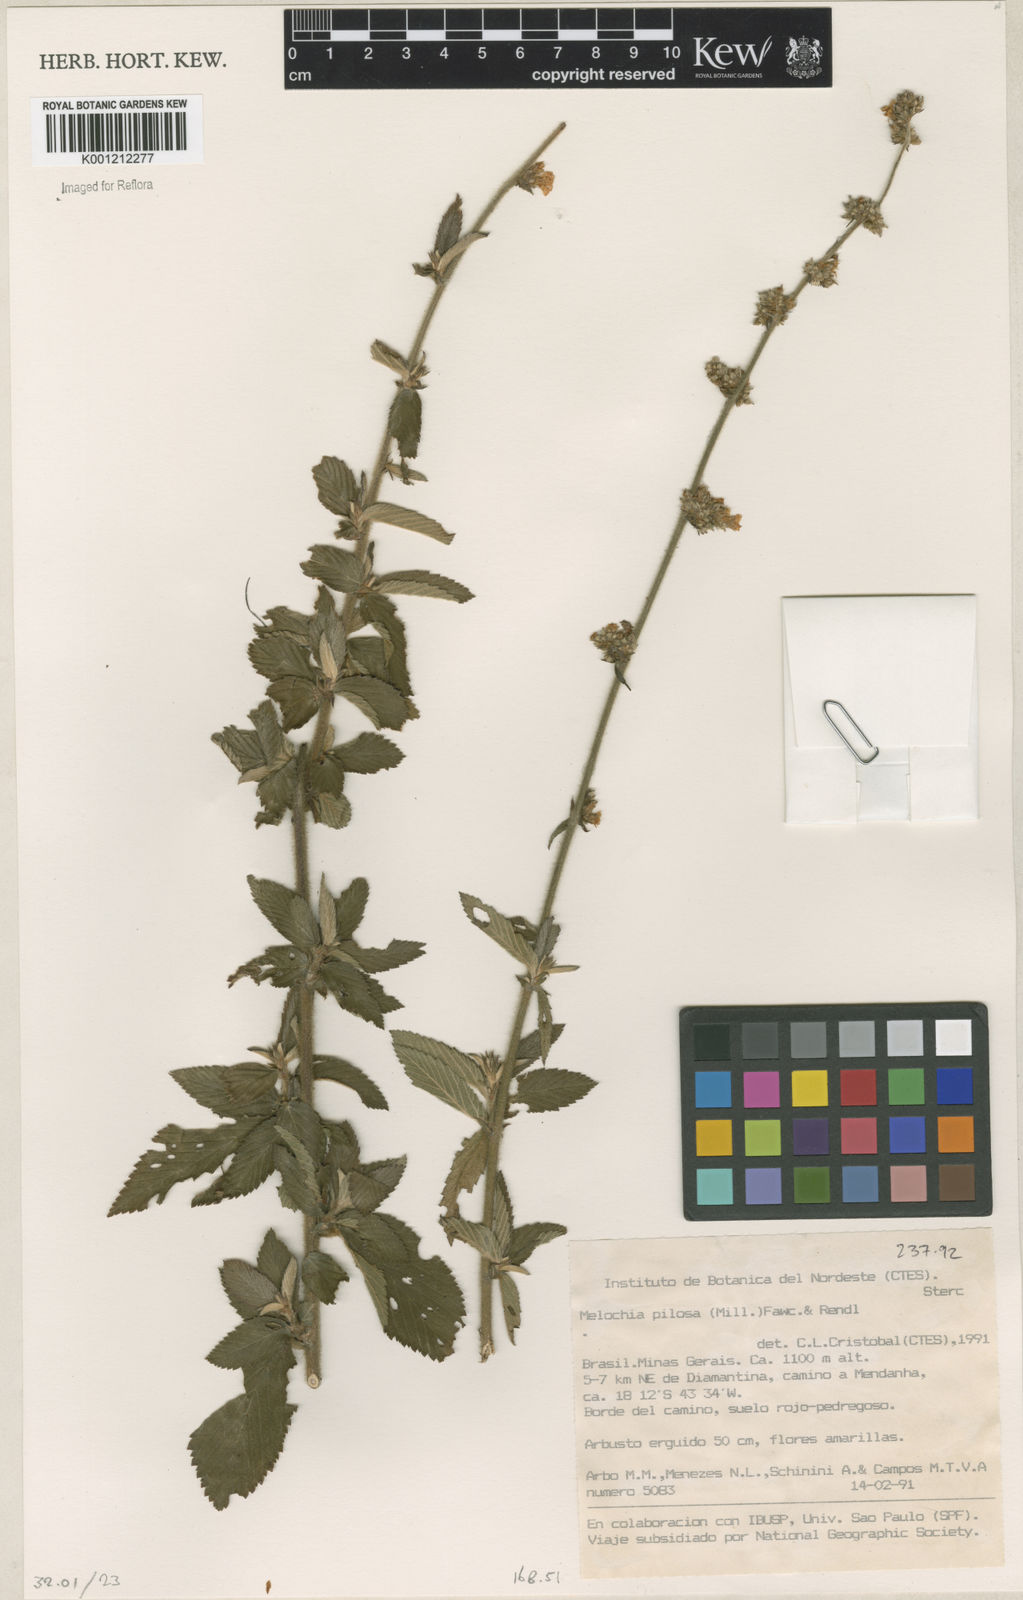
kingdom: Plantae
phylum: Tracheophyta
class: Magnoliopsida
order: Malvales
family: Malvaceae
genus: Melochia
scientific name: Melochia pilosa
